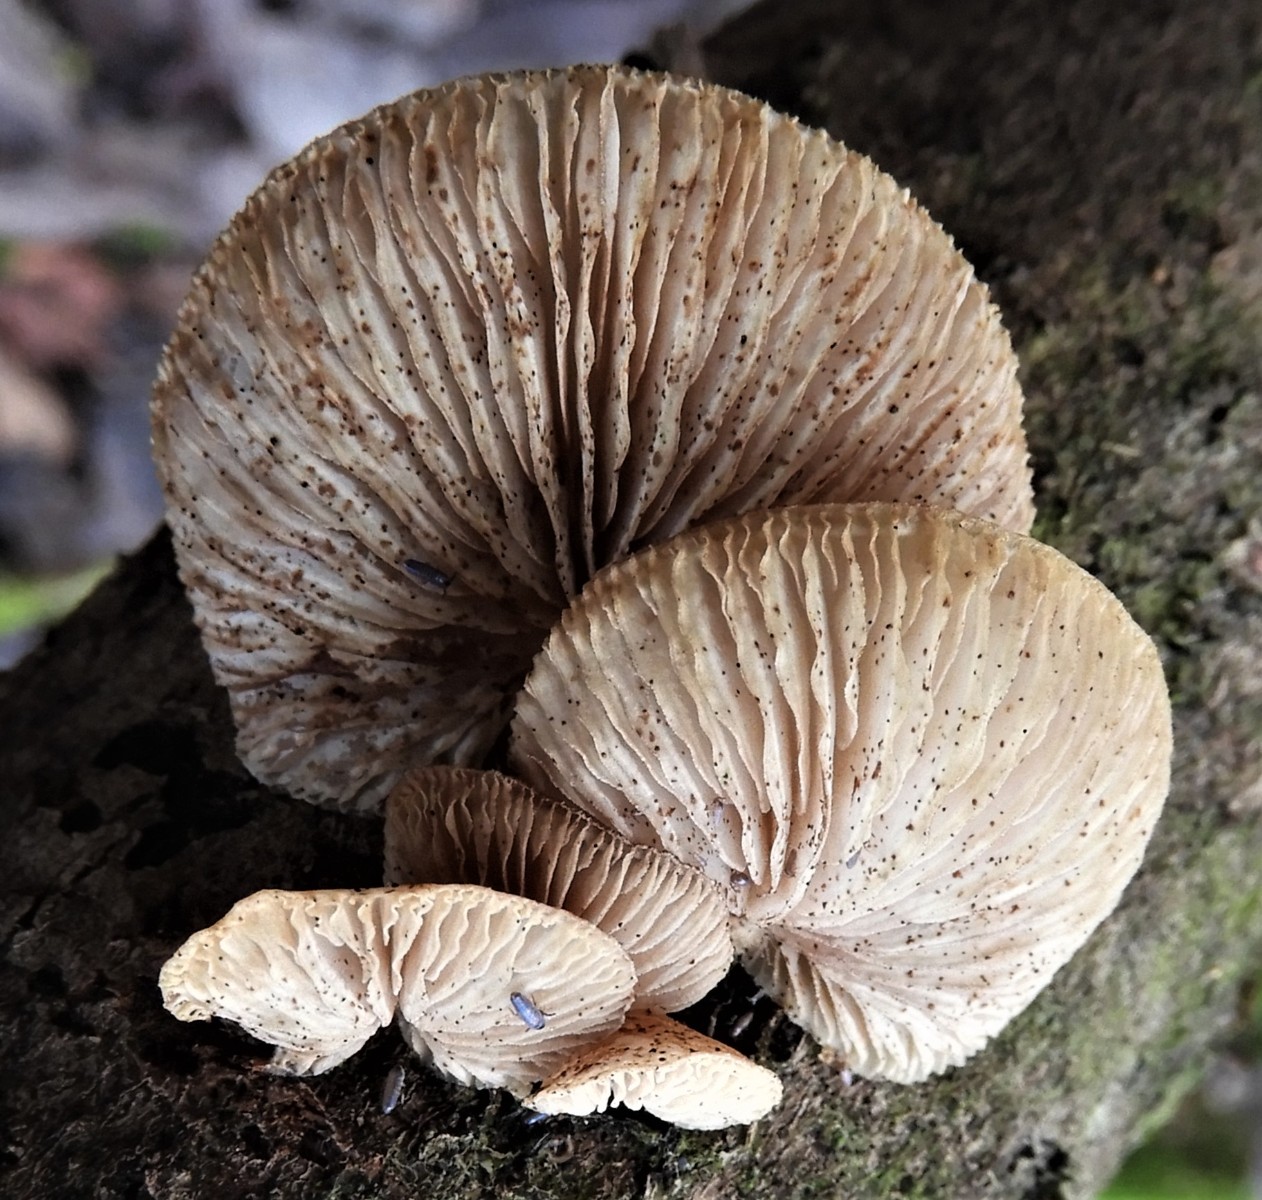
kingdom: Fungi
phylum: Basidiomycota
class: Agaricomycetes
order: Agaricales
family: Crepidotaceae
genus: Crepidotus
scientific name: Crepidotus mollis
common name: blød muslingesvamp
